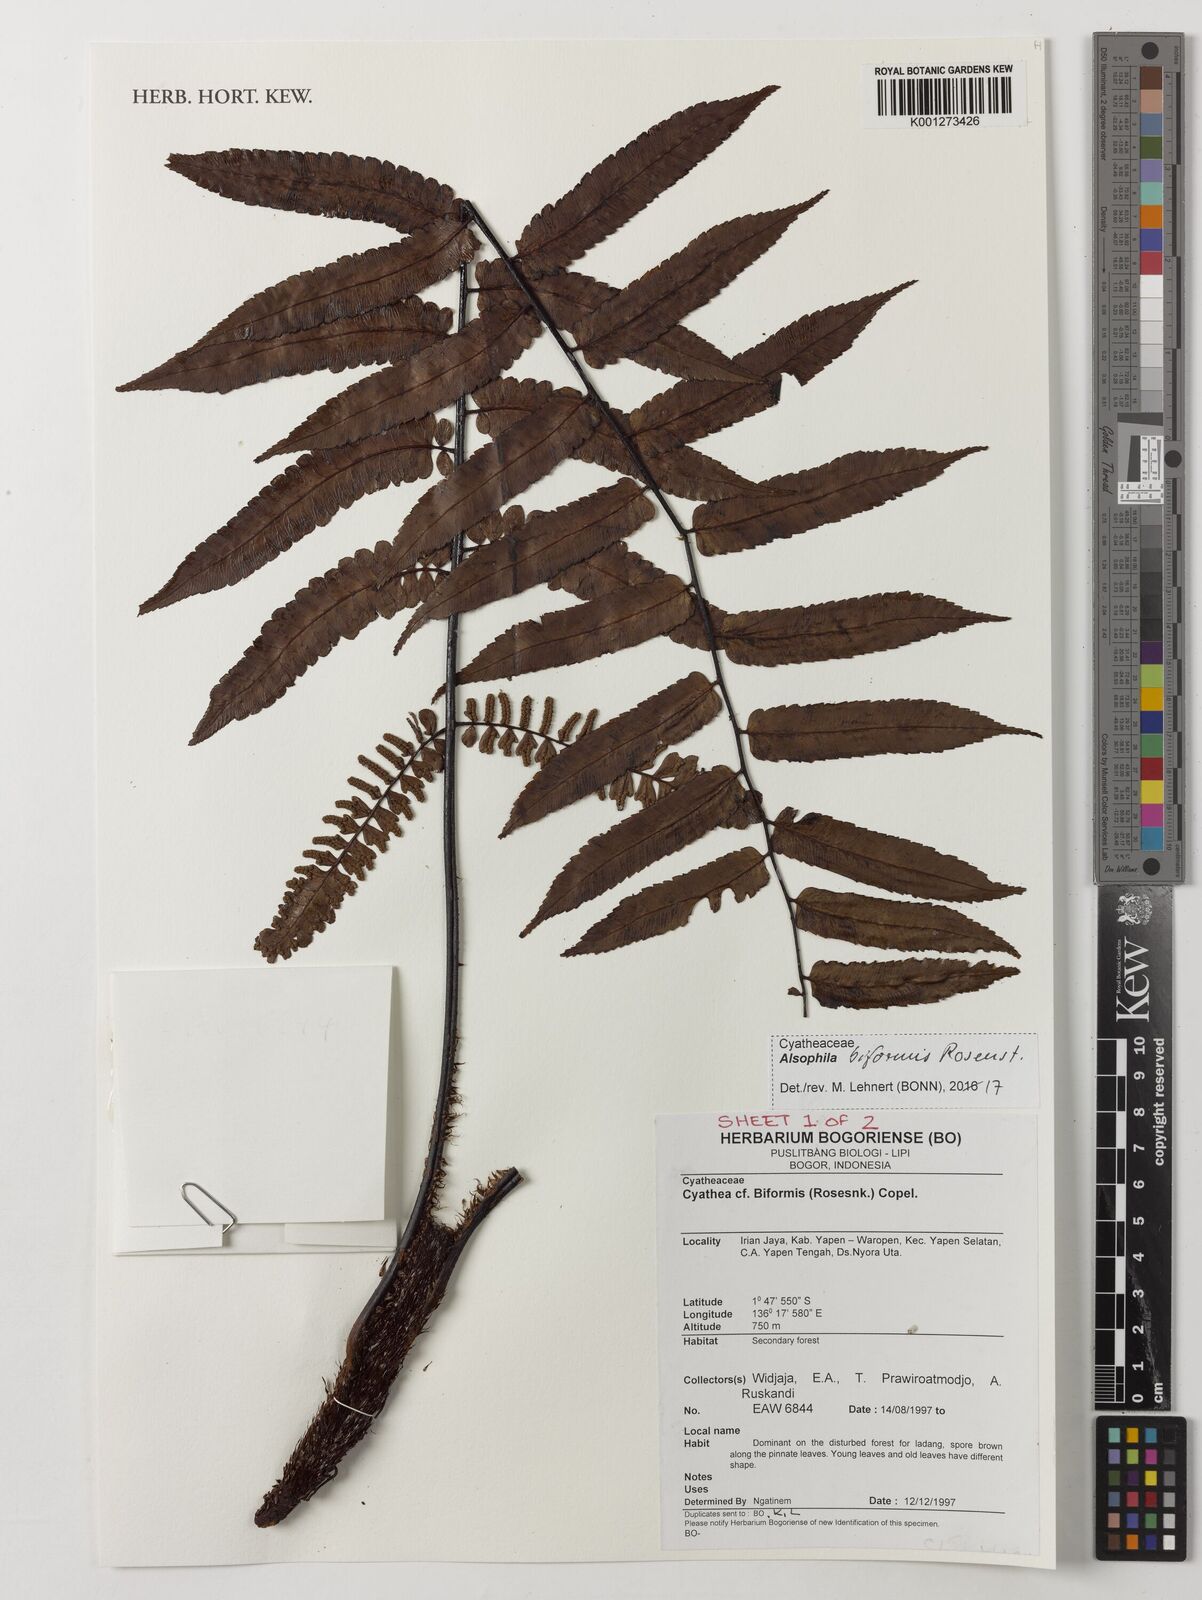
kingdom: Plantae
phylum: Tracheophyta
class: Polypodiopsida
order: Cyatheales
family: Cyatheaceae
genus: Gymnosphaera
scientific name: Gymnosphaera biformis
